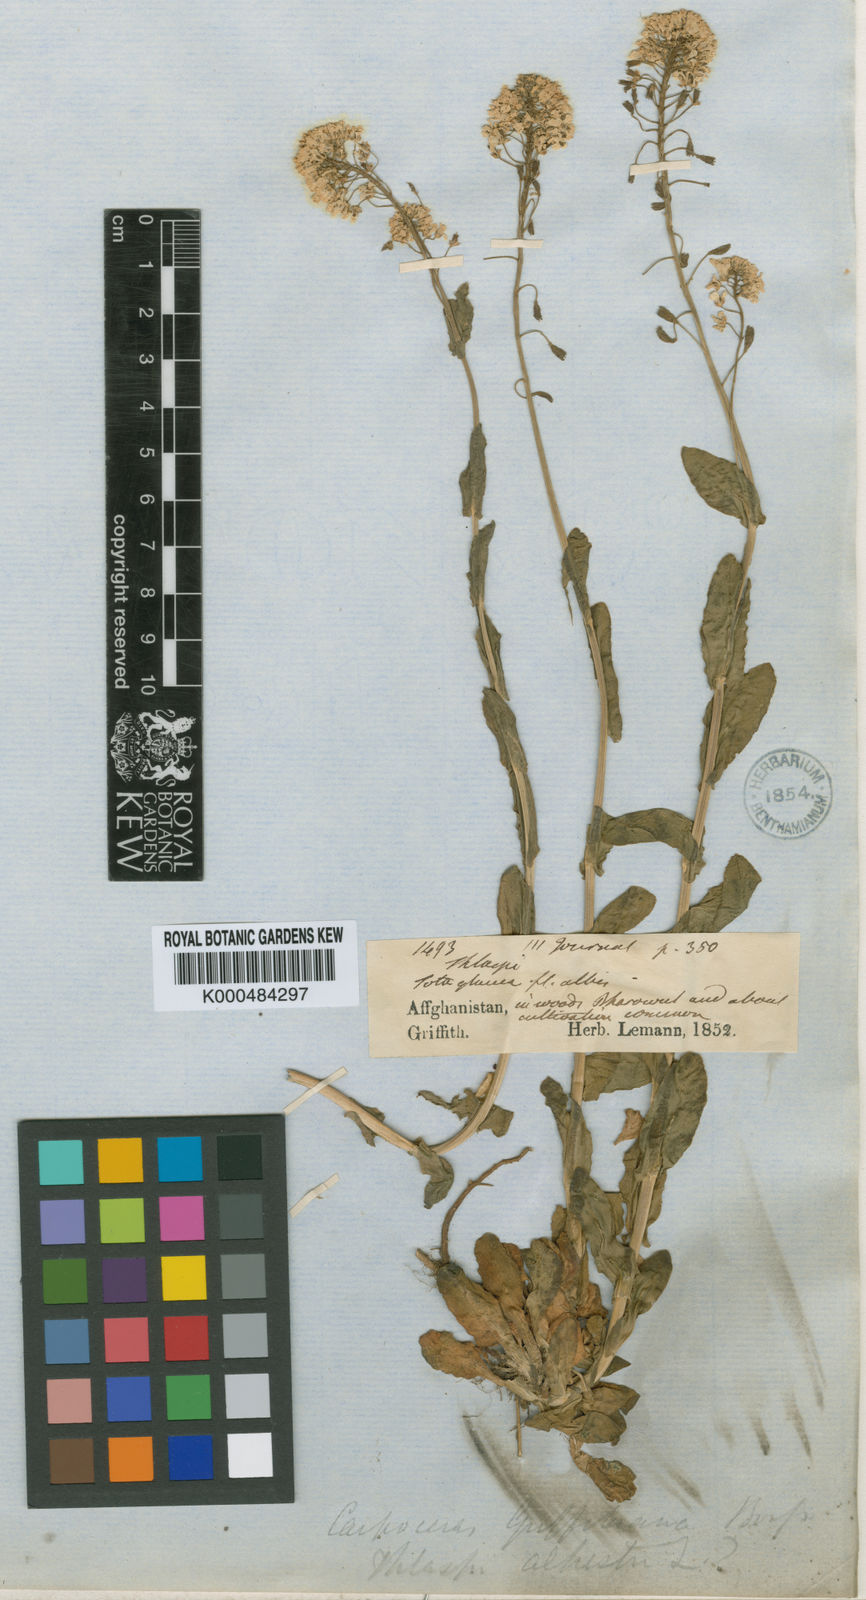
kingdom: Plantae
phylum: Tracheophyta
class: Magnoliopsida
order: Brassicales
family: Brassicaceae
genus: Noccaea
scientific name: Noccaea griffithiana
